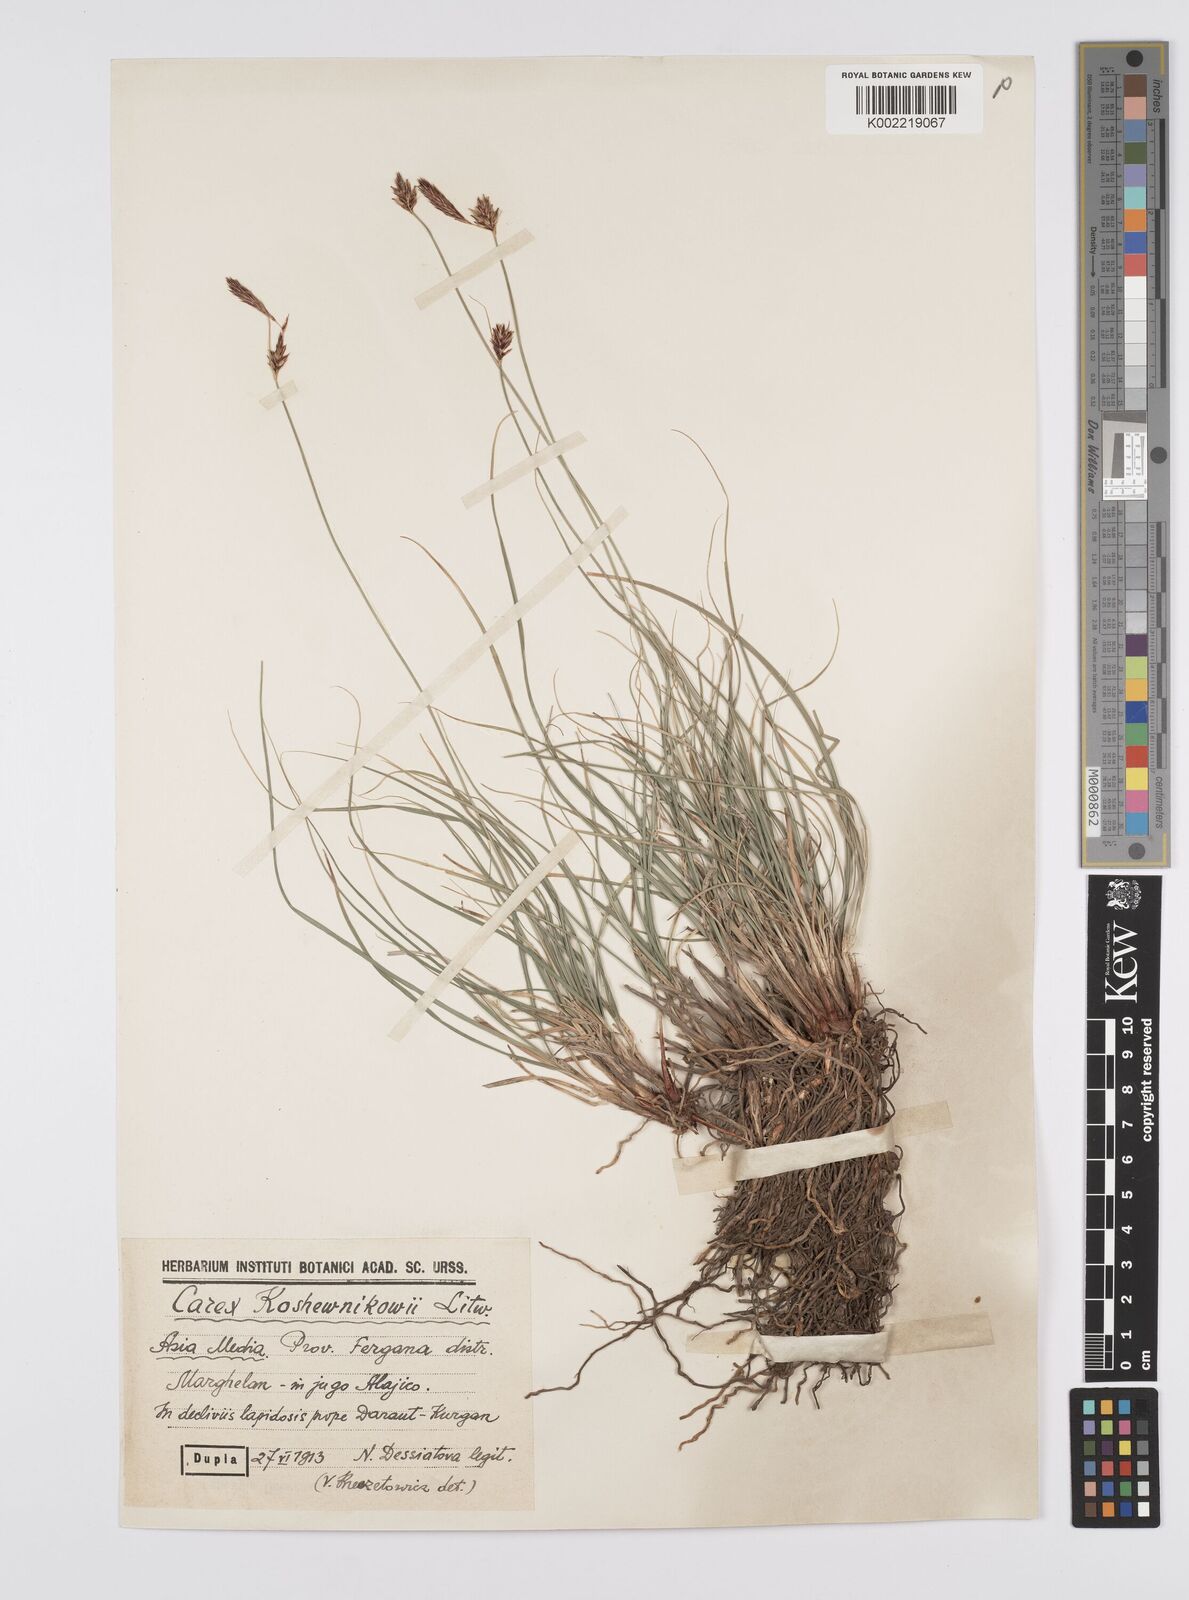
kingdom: Plantae
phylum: Tracheophyta
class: Liliopsida
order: Poales
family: Cyperaceae
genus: Carex
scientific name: Carex koshewnikowii
